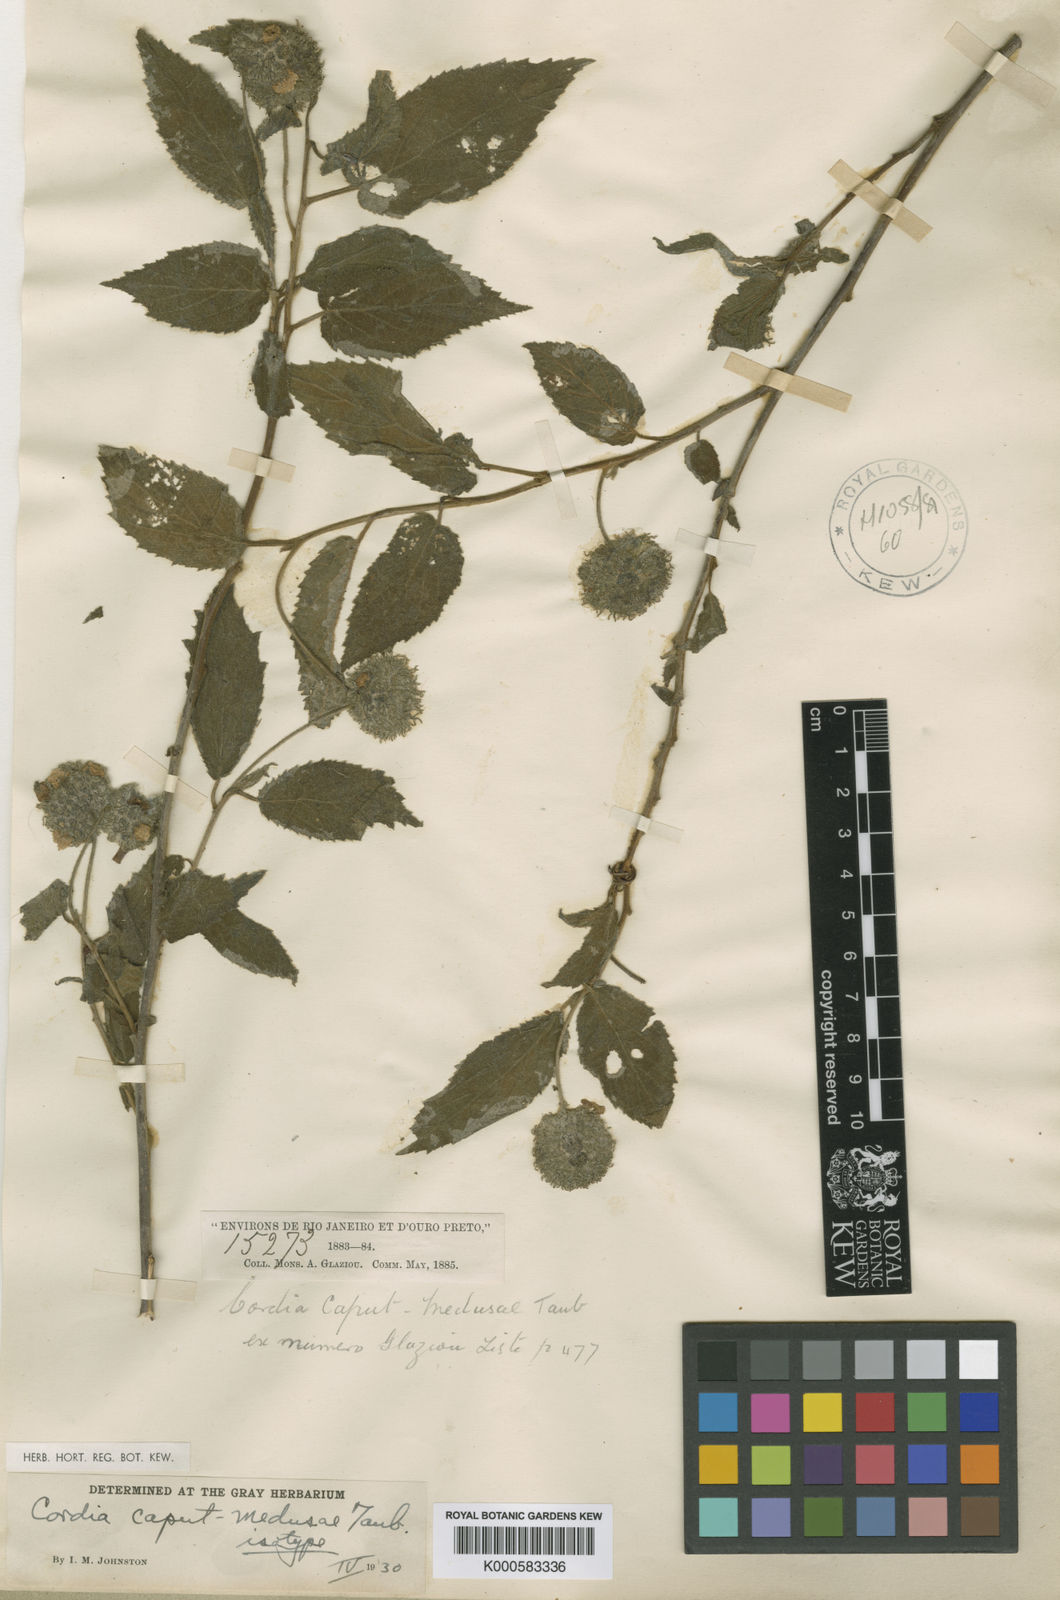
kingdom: Plantae
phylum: Tracheophyta
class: Magnoliopsida
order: Boraginales
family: Cordiaceae
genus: Varronia
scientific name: Varronia caput-medusae
